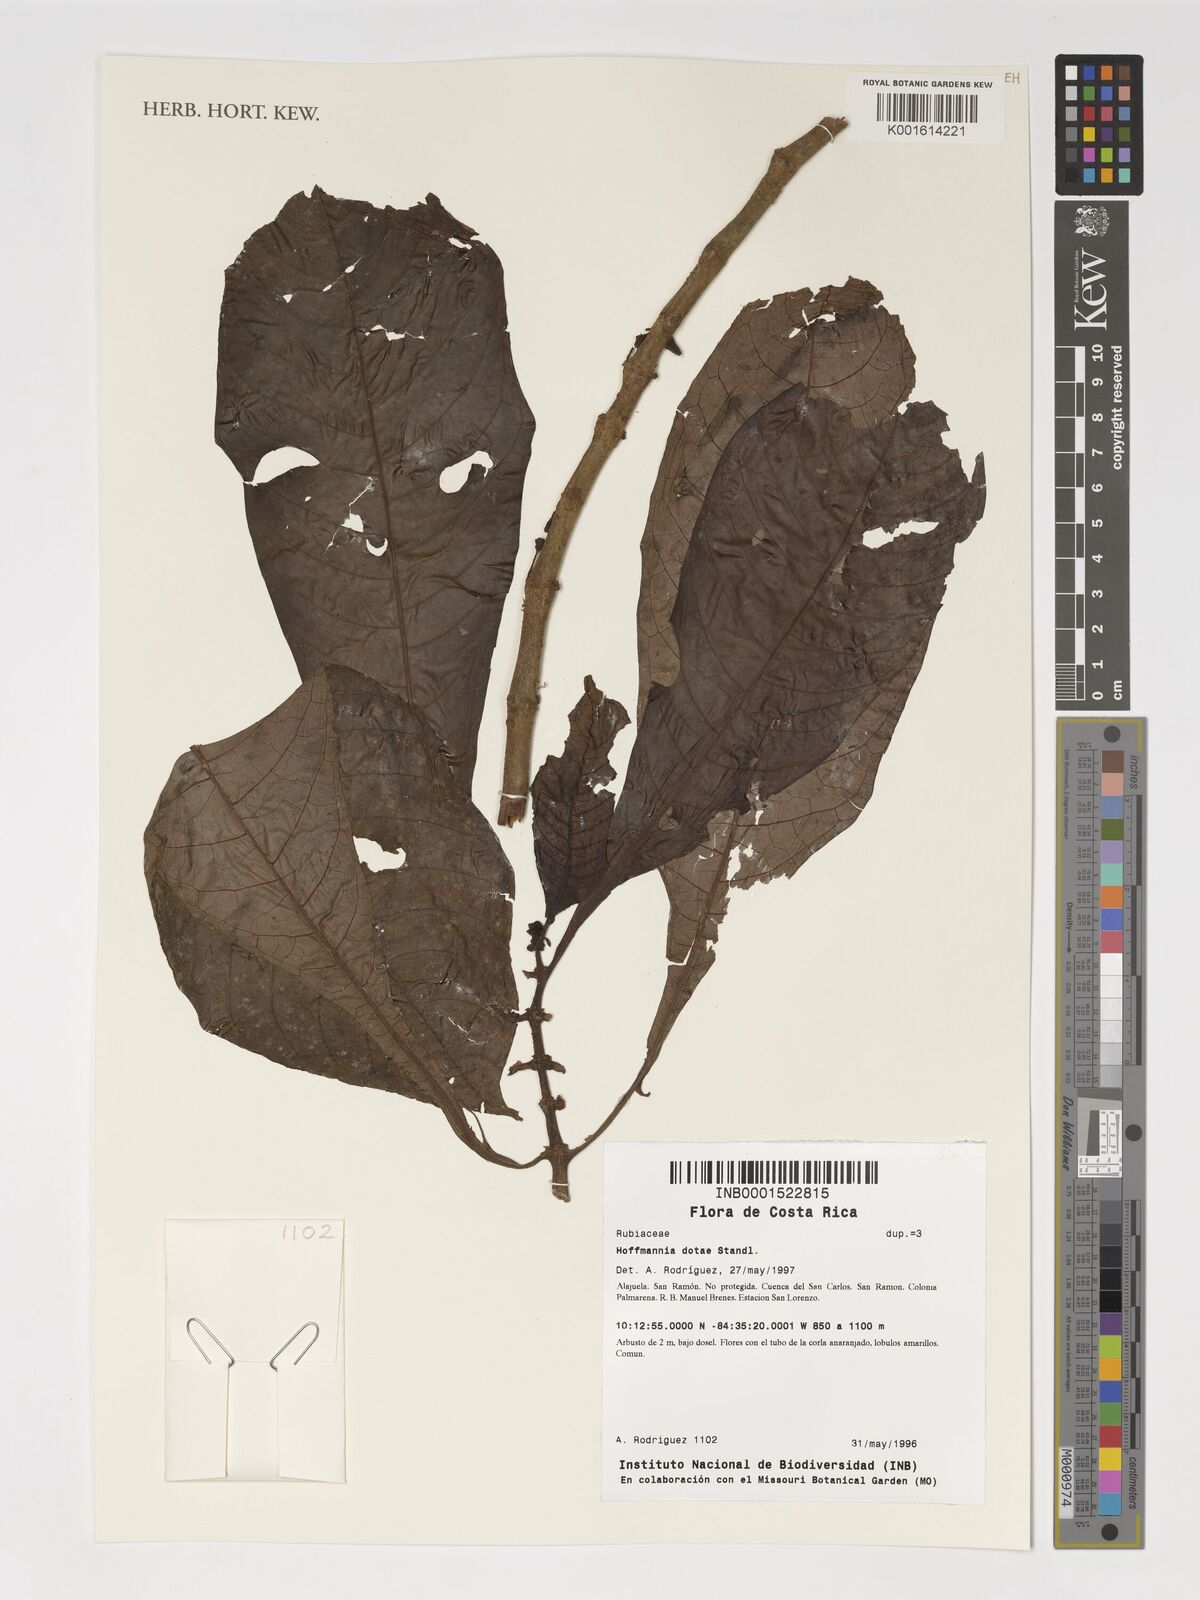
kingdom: Plantae
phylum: Tracheophyta
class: Magnoliopsida
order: Gentianales
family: Rubiaceae
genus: Hoffmannia
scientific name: Hoffmannia dotae
